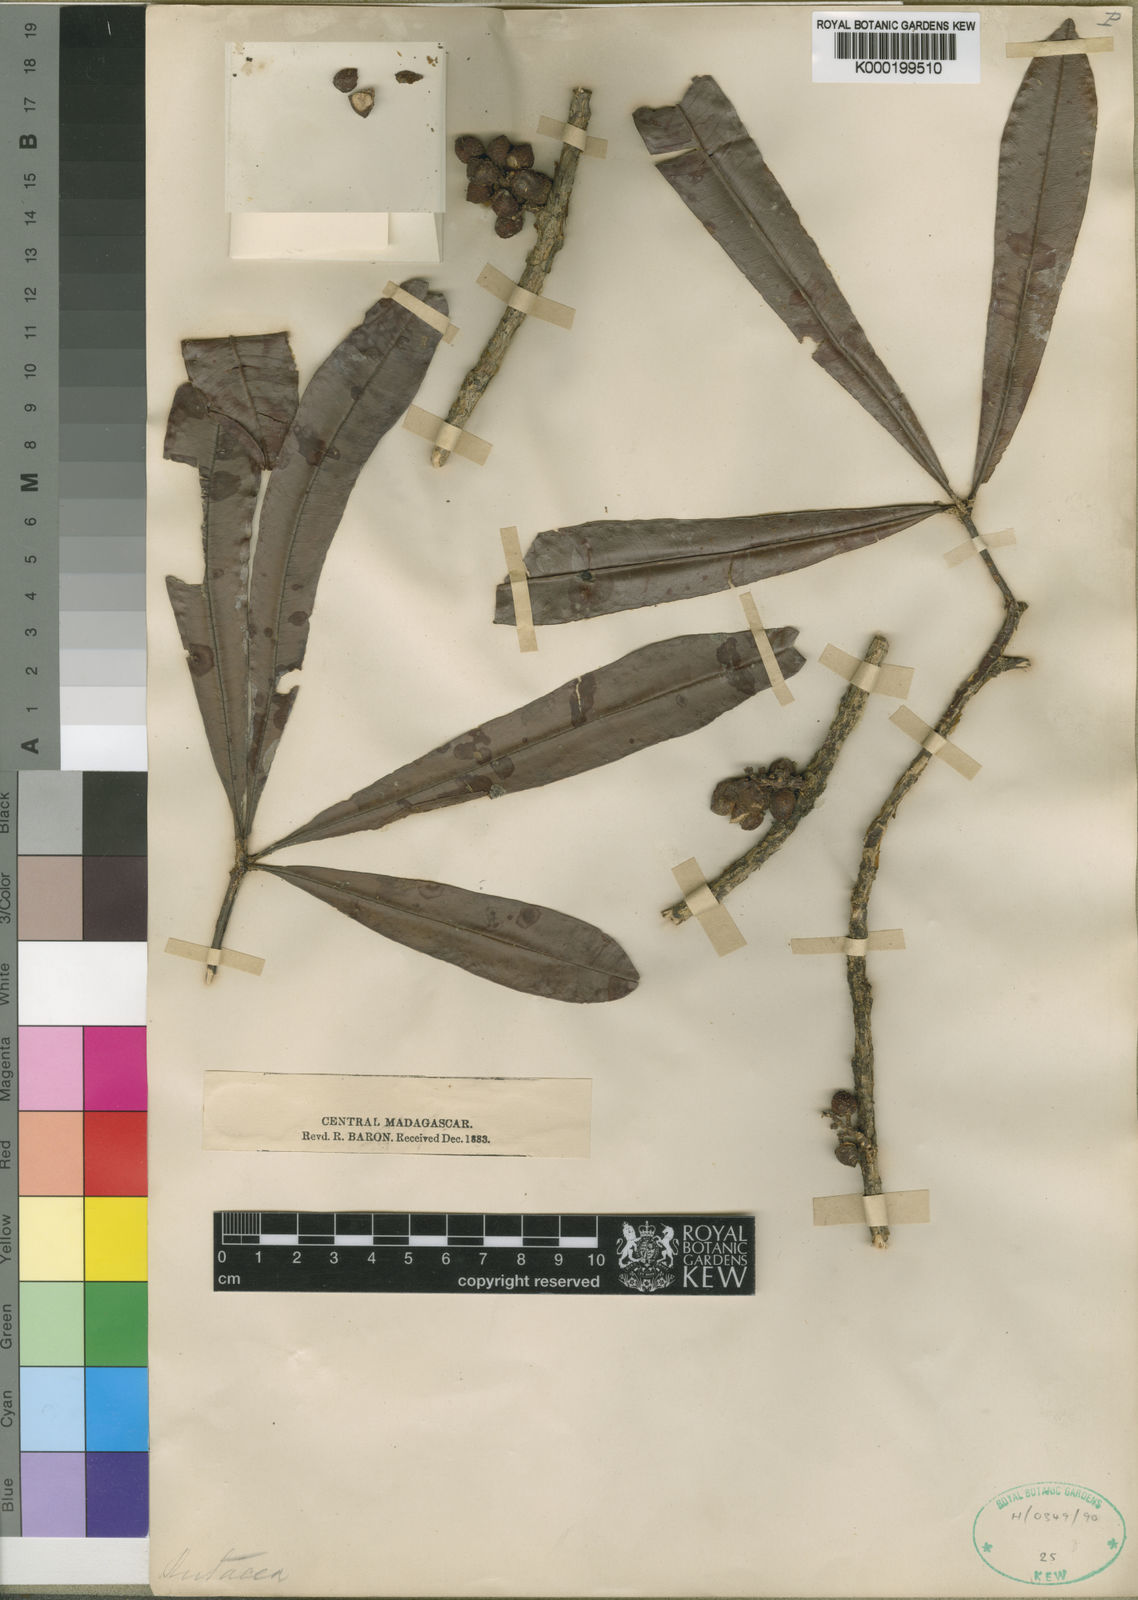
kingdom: Plantae
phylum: Tracheophyta
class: Magnoliopsida
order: Sapindales
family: Rutaceae
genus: Vepris
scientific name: Vepris densiflora
